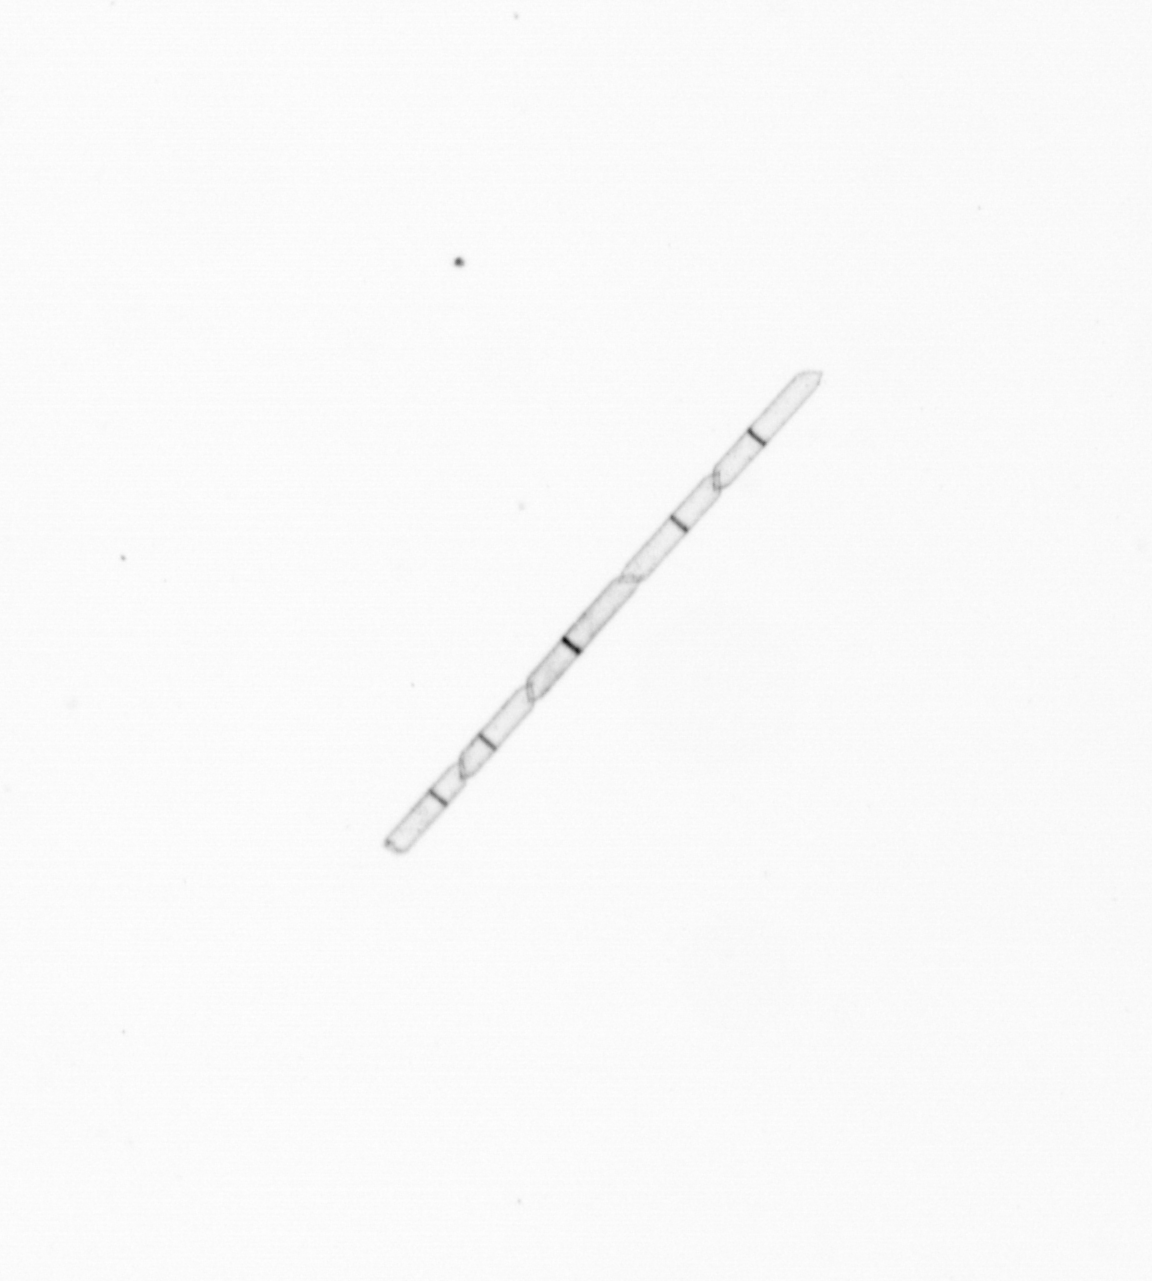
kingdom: Chromista
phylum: Ochrophyta
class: Bacillariophyceae
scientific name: Bacillariophyceae
